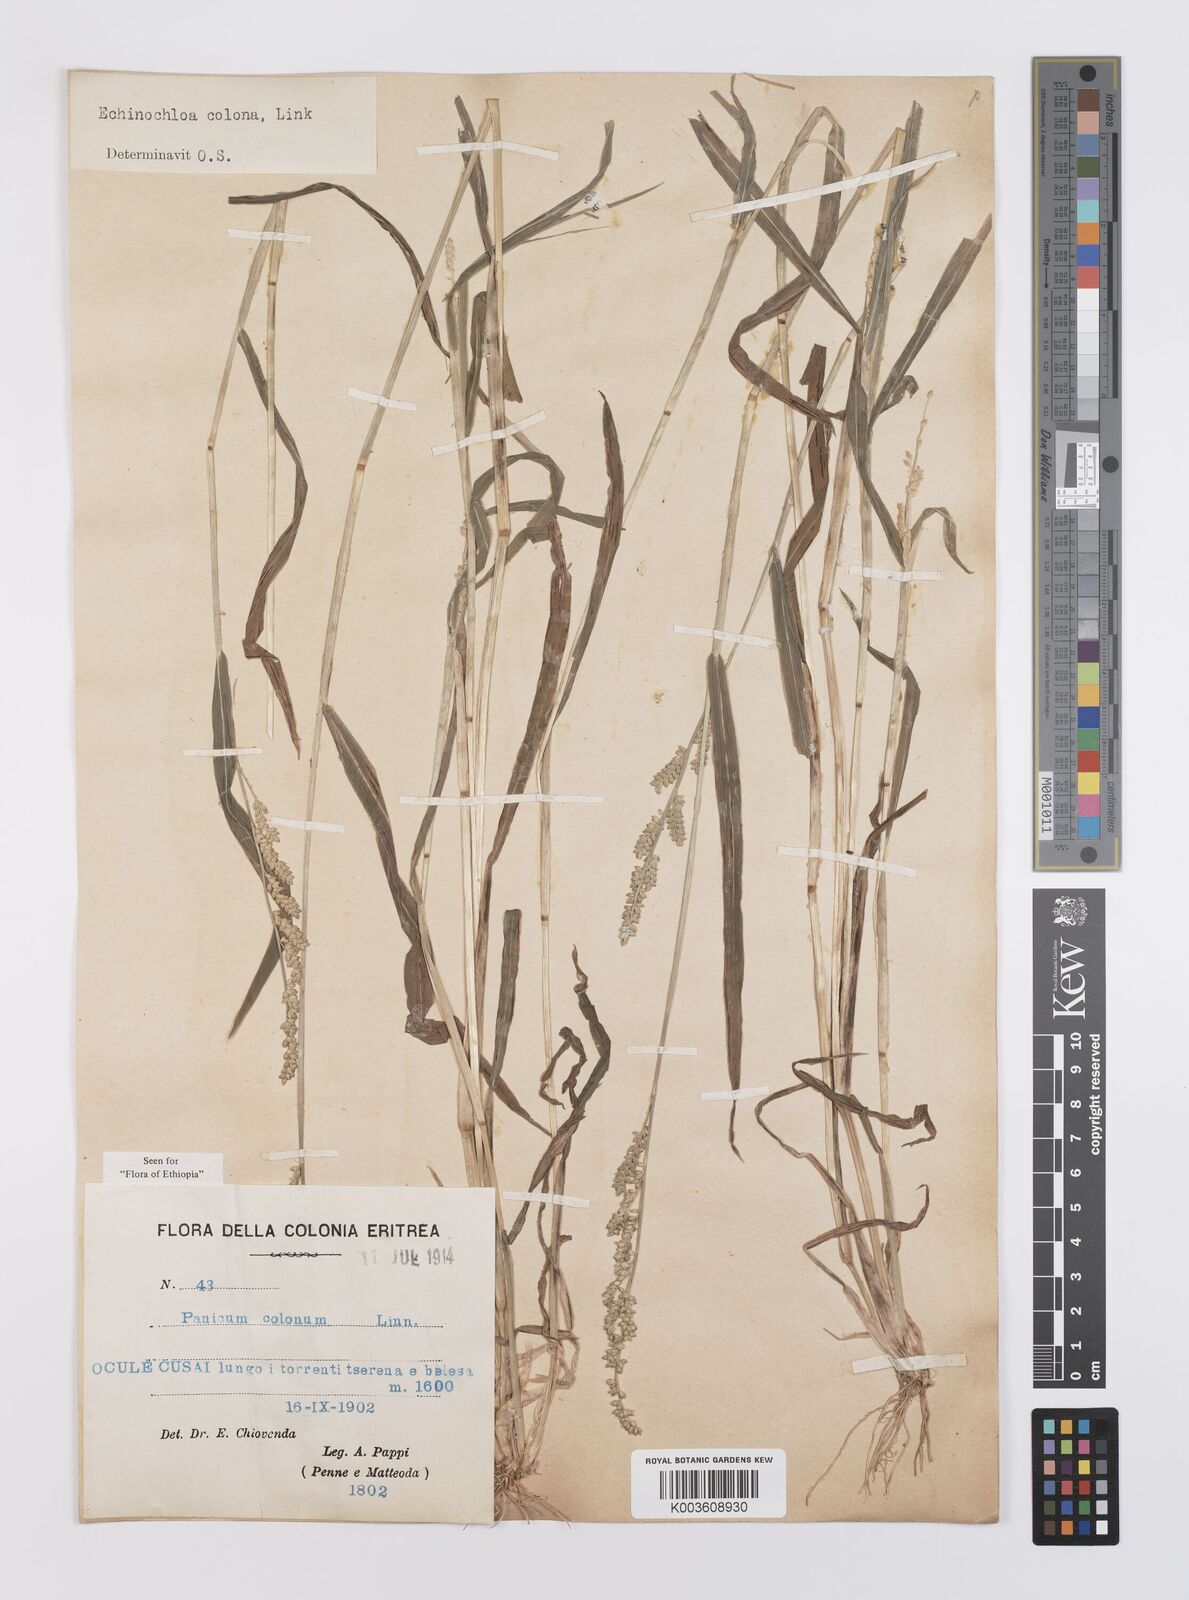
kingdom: Plantae
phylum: Tracheophyta
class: Liliopsida
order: Poales
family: Poaceae
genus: Echinochloa
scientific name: Echinochloa colonum
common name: Jungle rice
